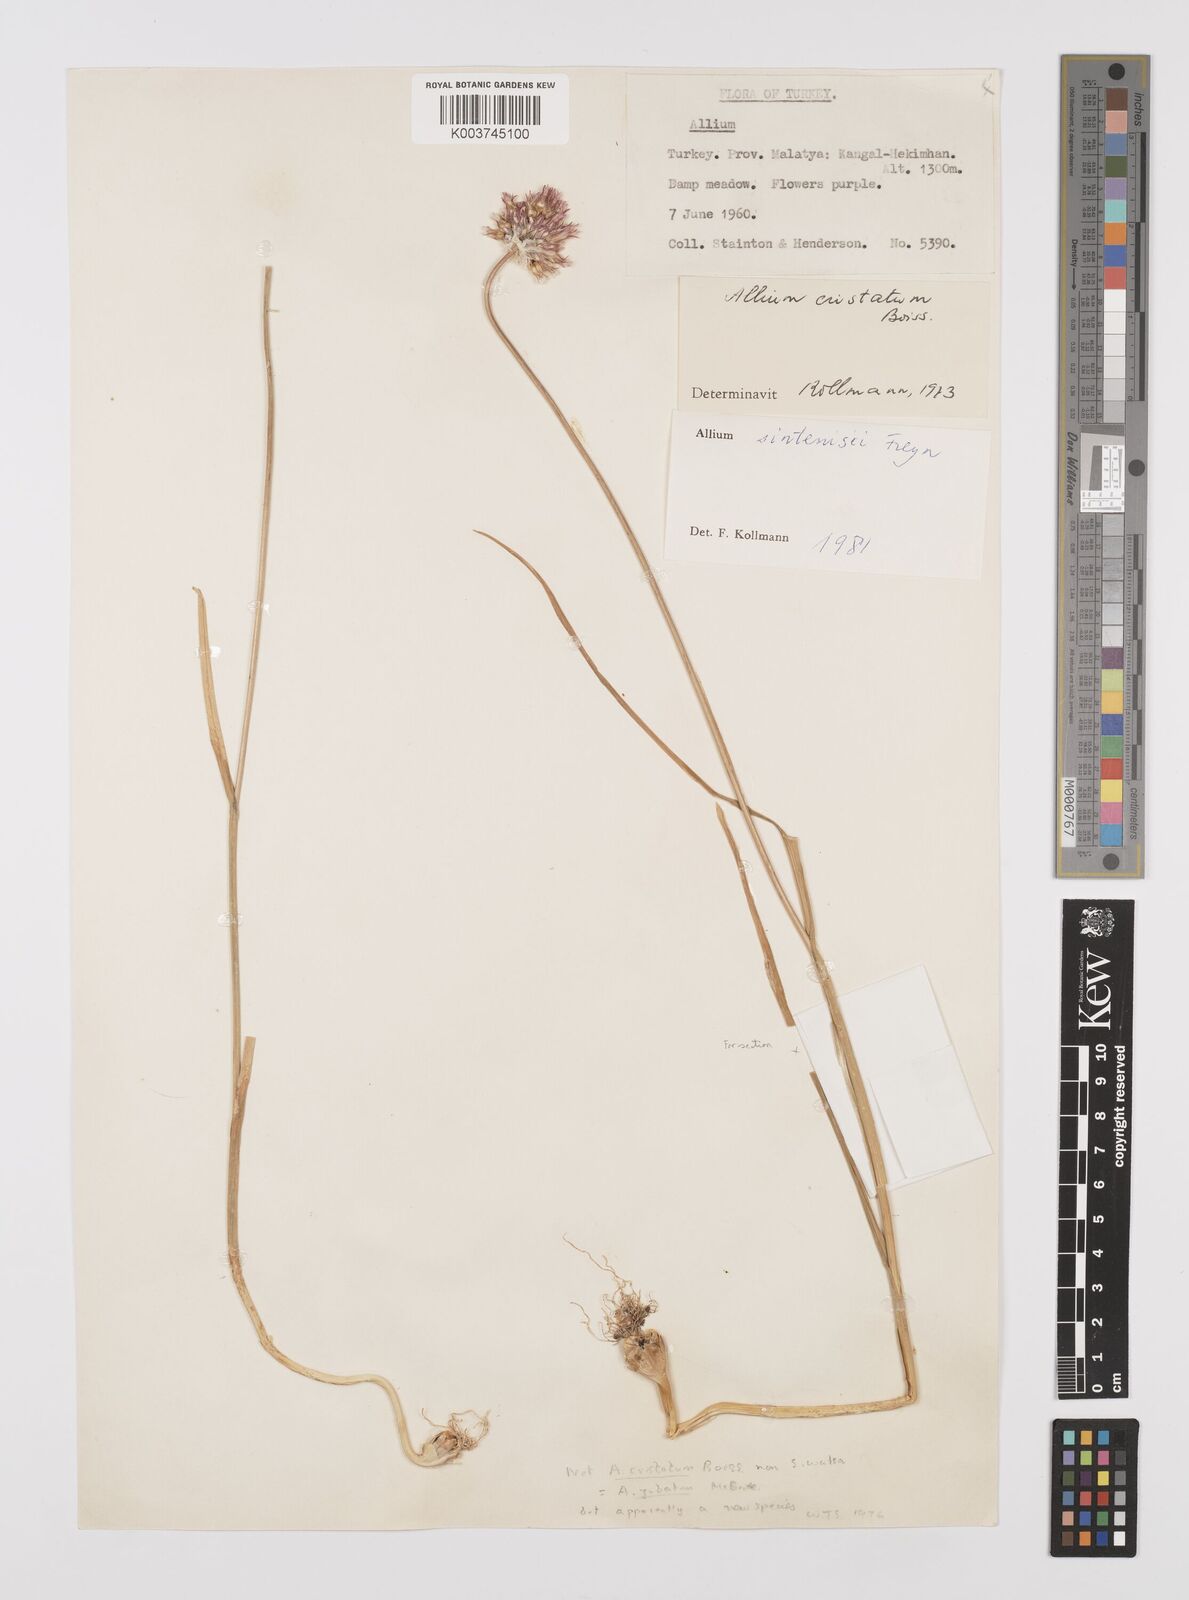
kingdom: Plantae
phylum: Tracheophyta
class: Liliopsida
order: Asparagales
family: Amaryllidaceae
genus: Allium
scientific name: Allium sintenisii
